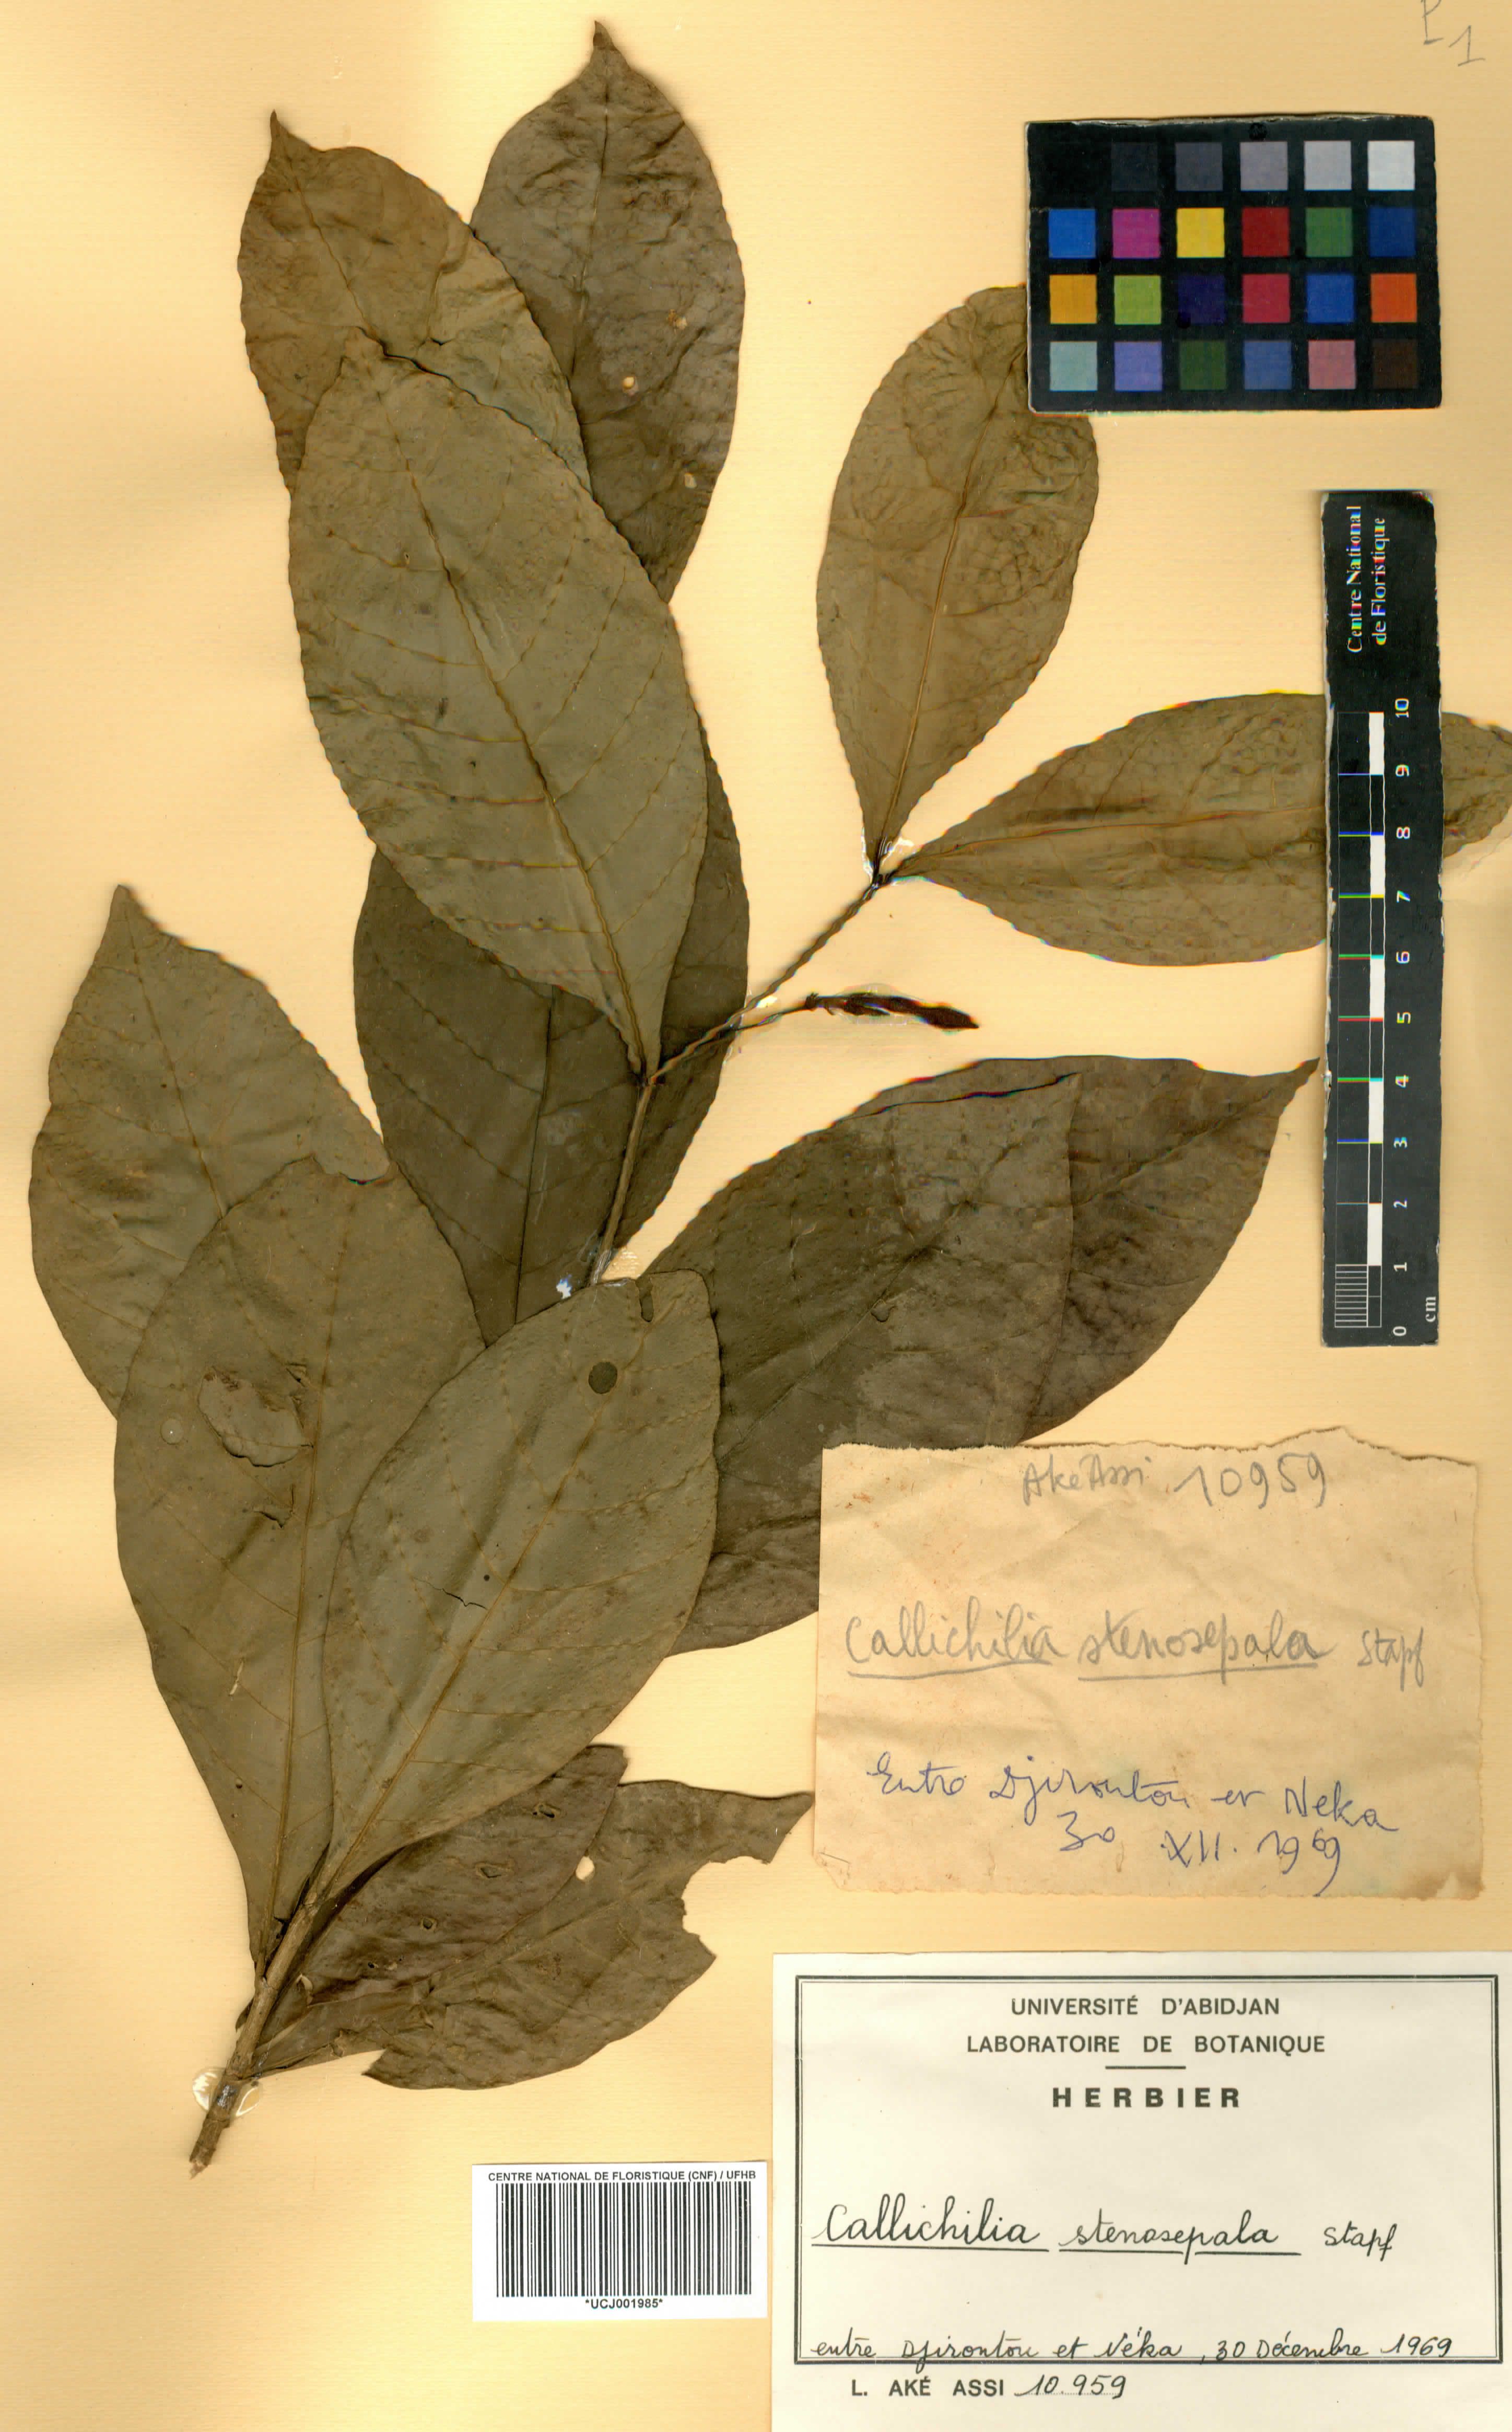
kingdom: Plantae
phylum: Tracheophyta
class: Magnoliopsida
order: Gentianales
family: Apocynaceae
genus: Callichilia
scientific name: Callichilia subsessilis
